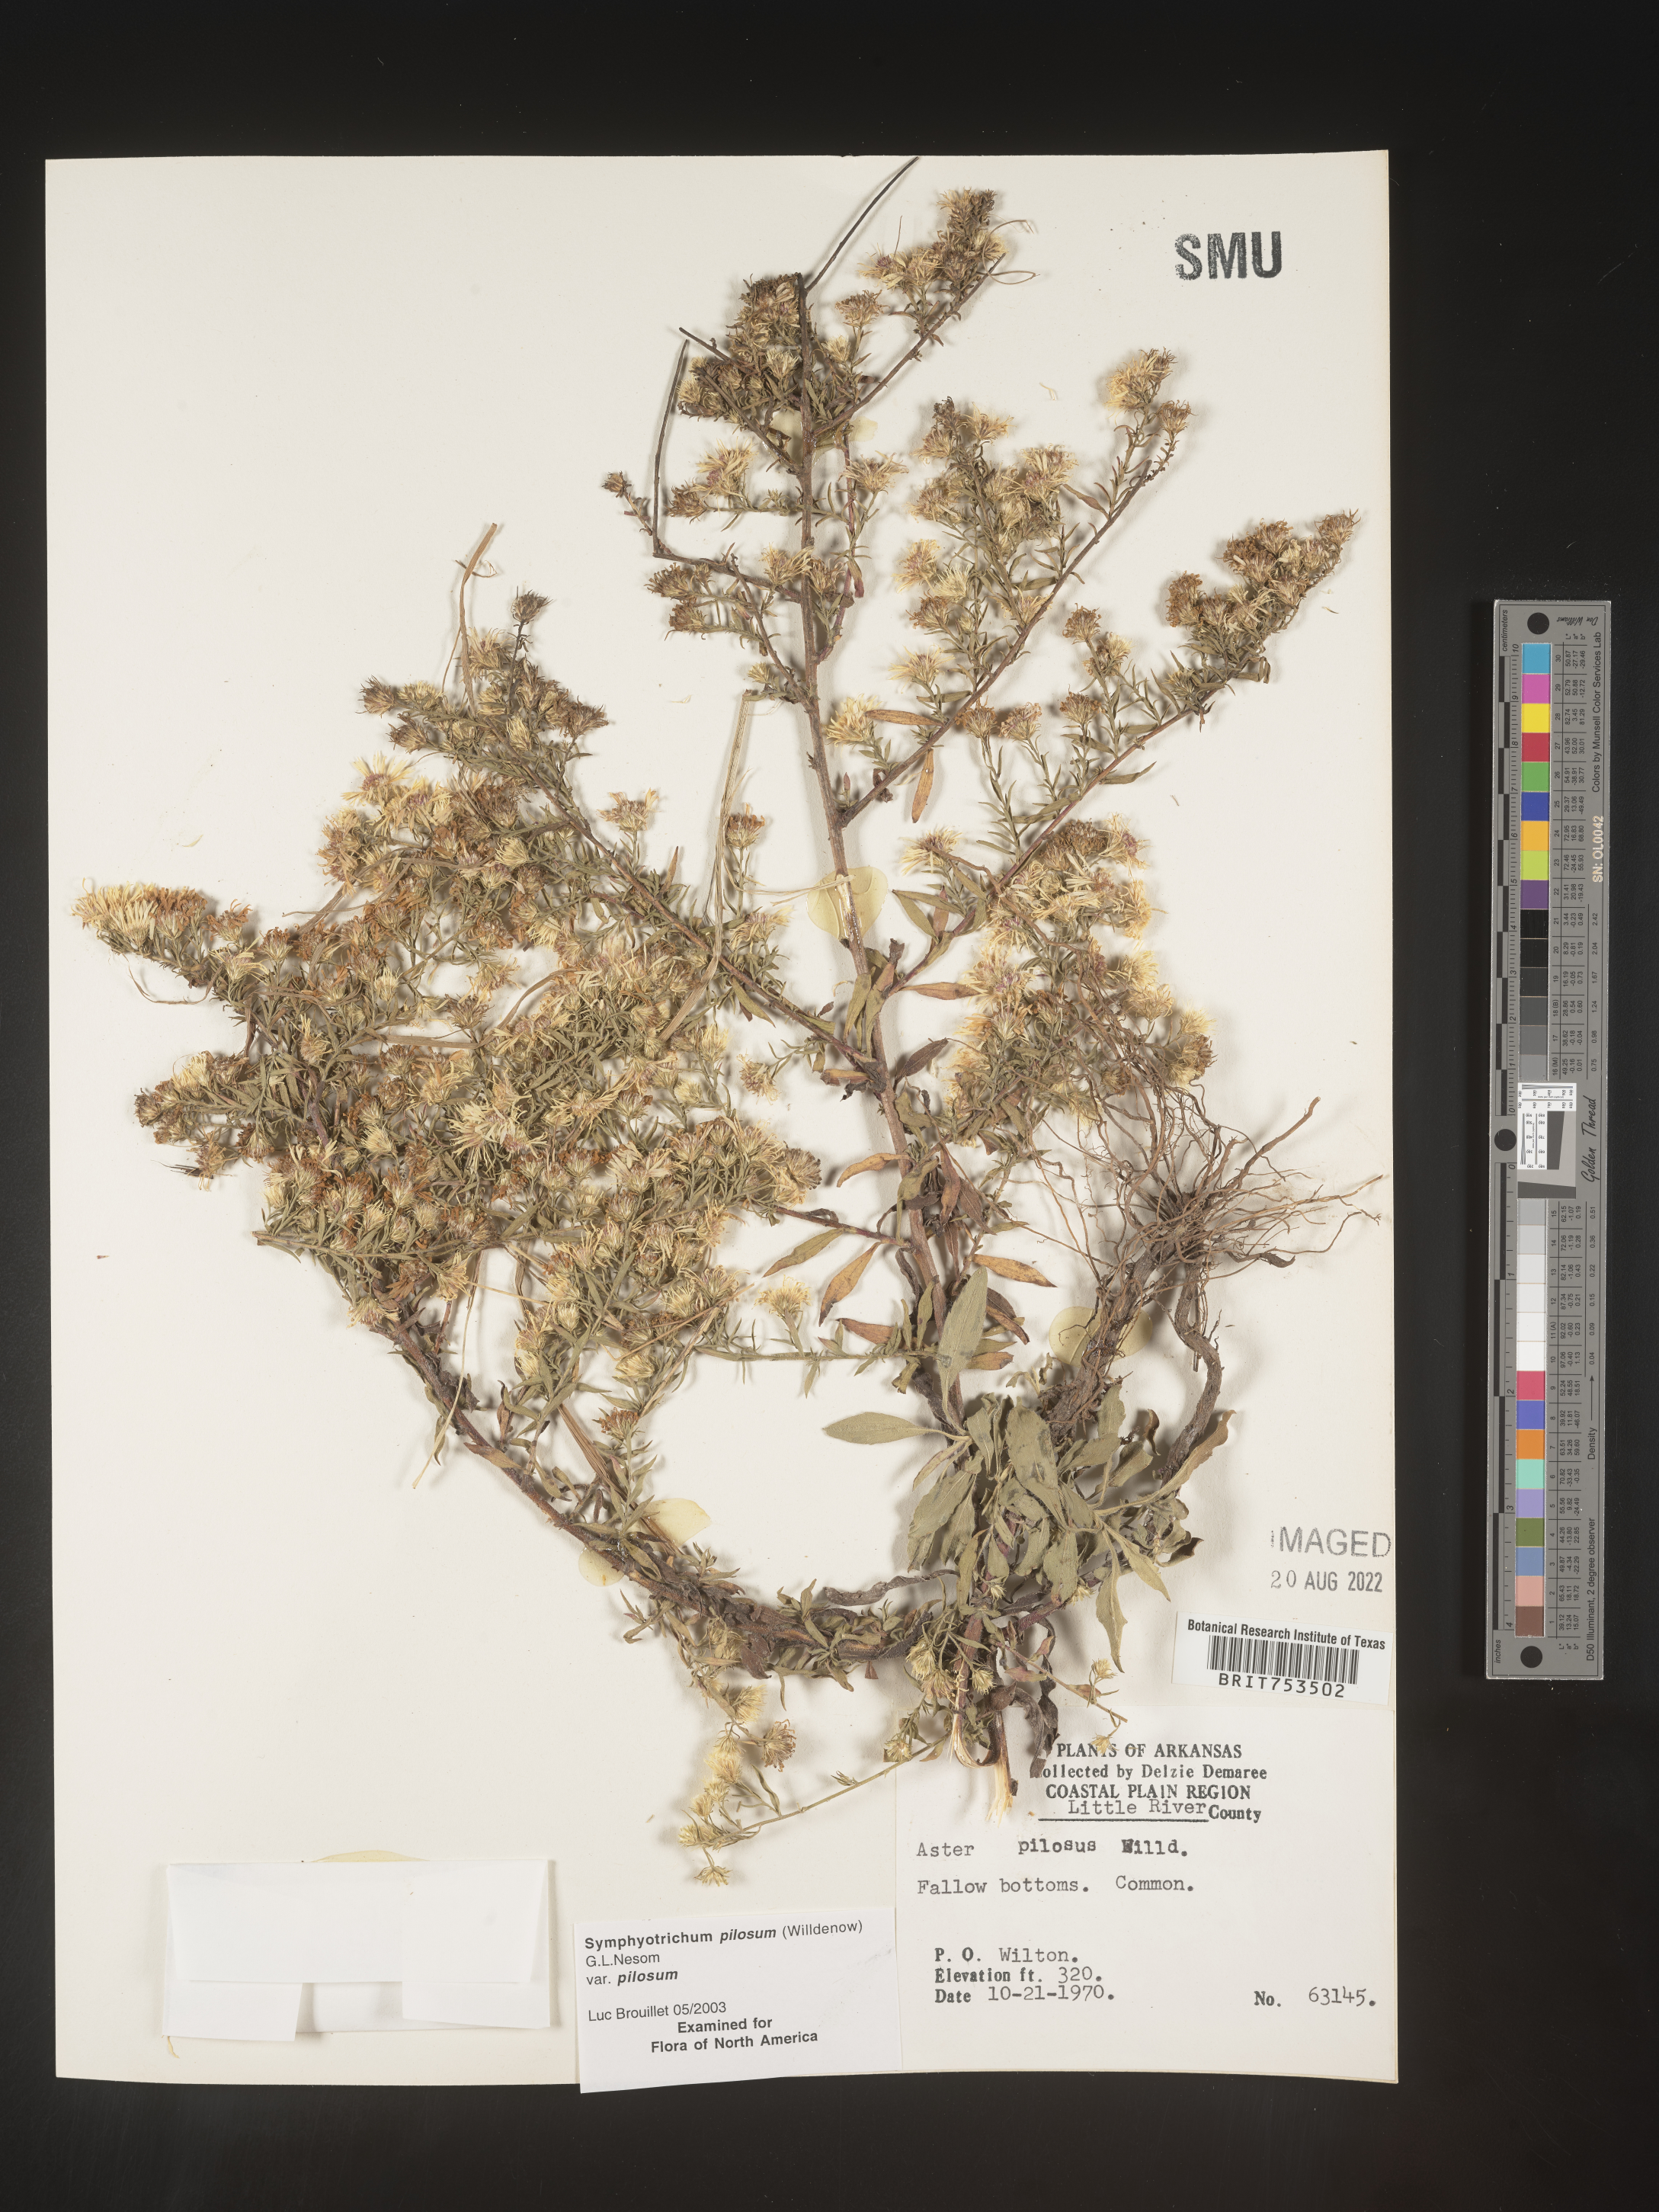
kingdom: Plantae
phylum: Tracheophyta
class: Magnoliopsida
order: Asterales
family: Asteraceae
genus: Symphyotrichum
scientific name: Symphyotrichum pilosum
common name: Awl aster
